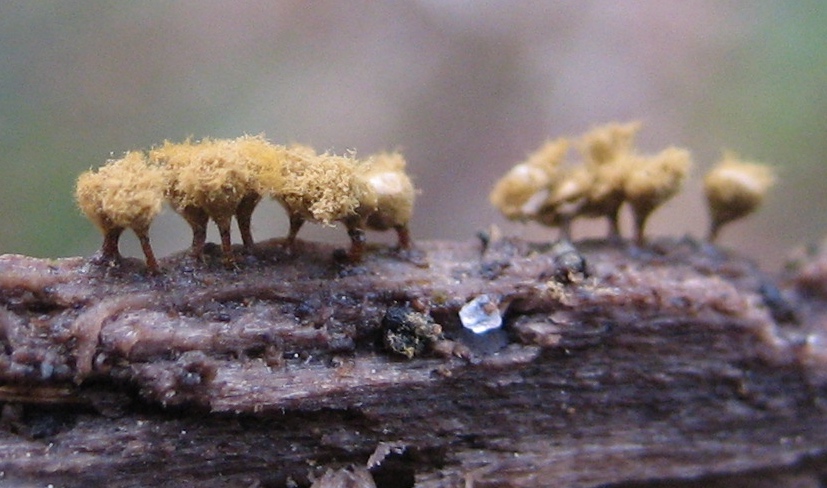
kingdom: Protozoa
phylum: Mycetozoa
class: Myxomycetes
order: Trichiales
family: Trichiaceae
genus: Trichia
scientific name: Trichia crateriformis
